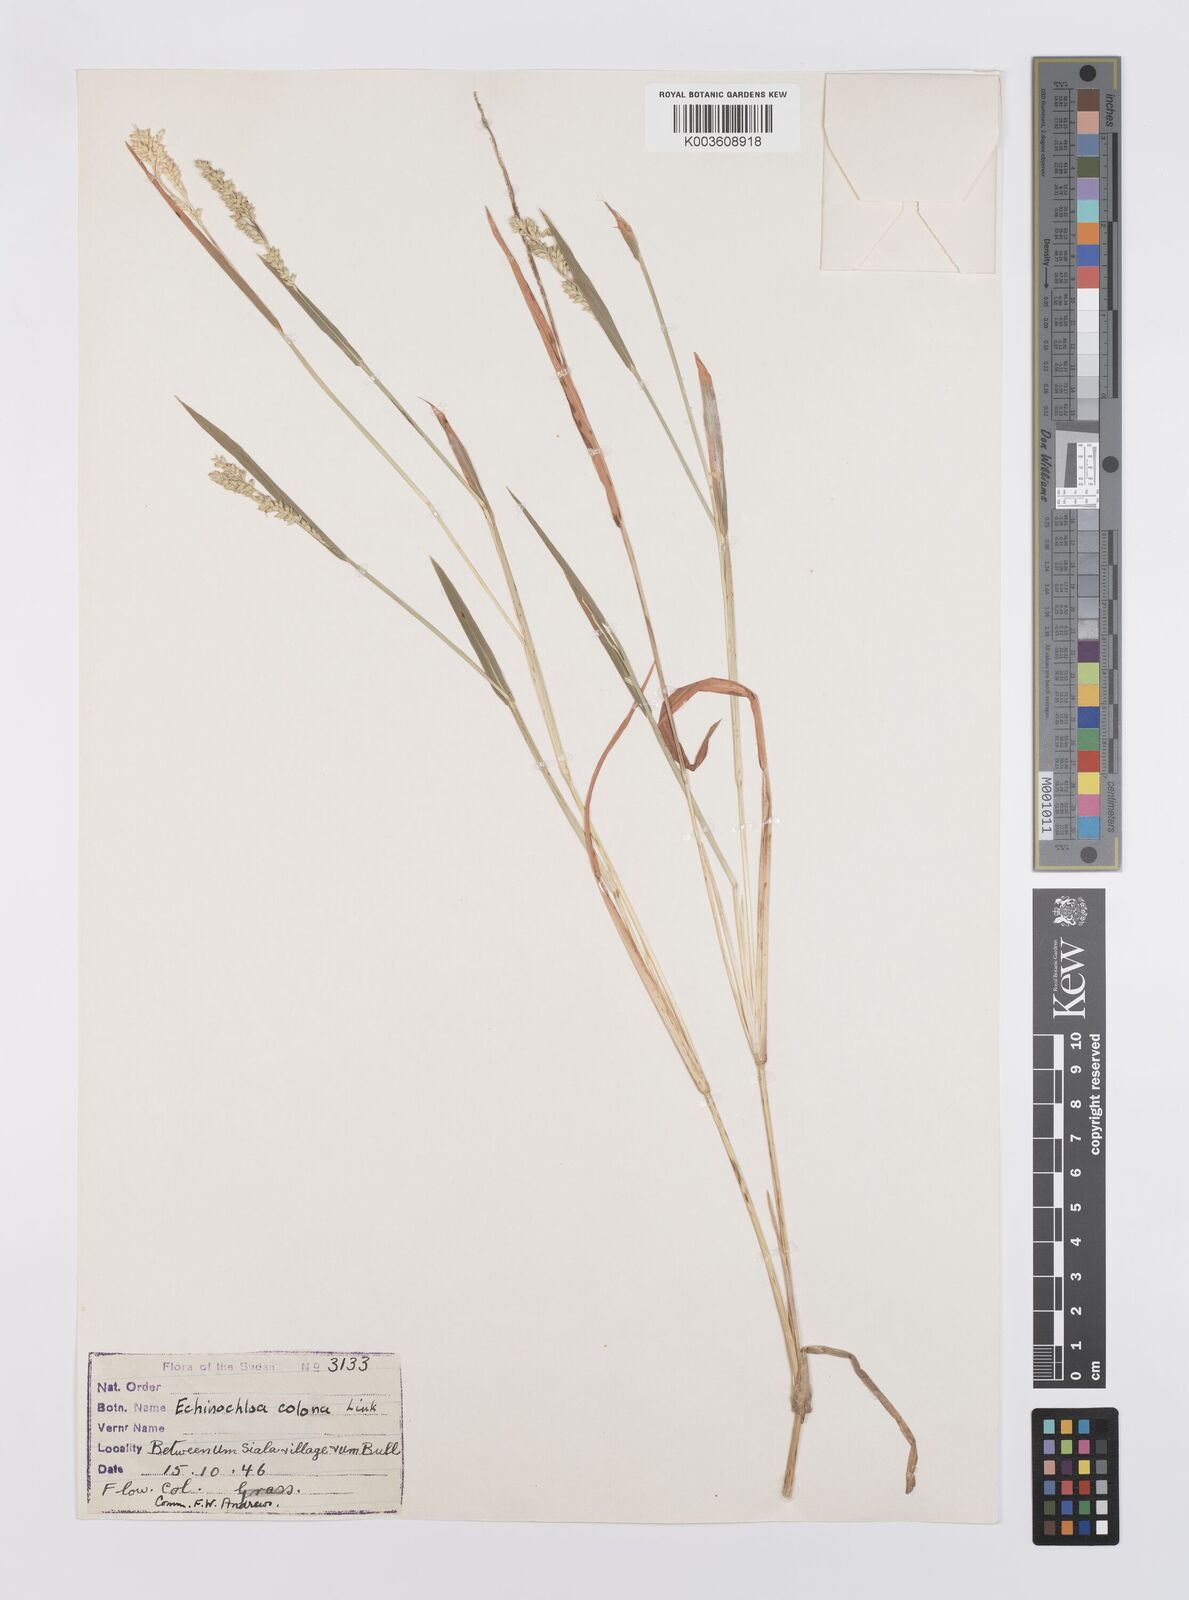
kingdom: Plantae
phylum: Tracheophyta
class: Liliopsida
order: Poales
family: Poaceae
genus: Echinochloa
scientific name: Echinochloa colonum
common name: Jungle rice
